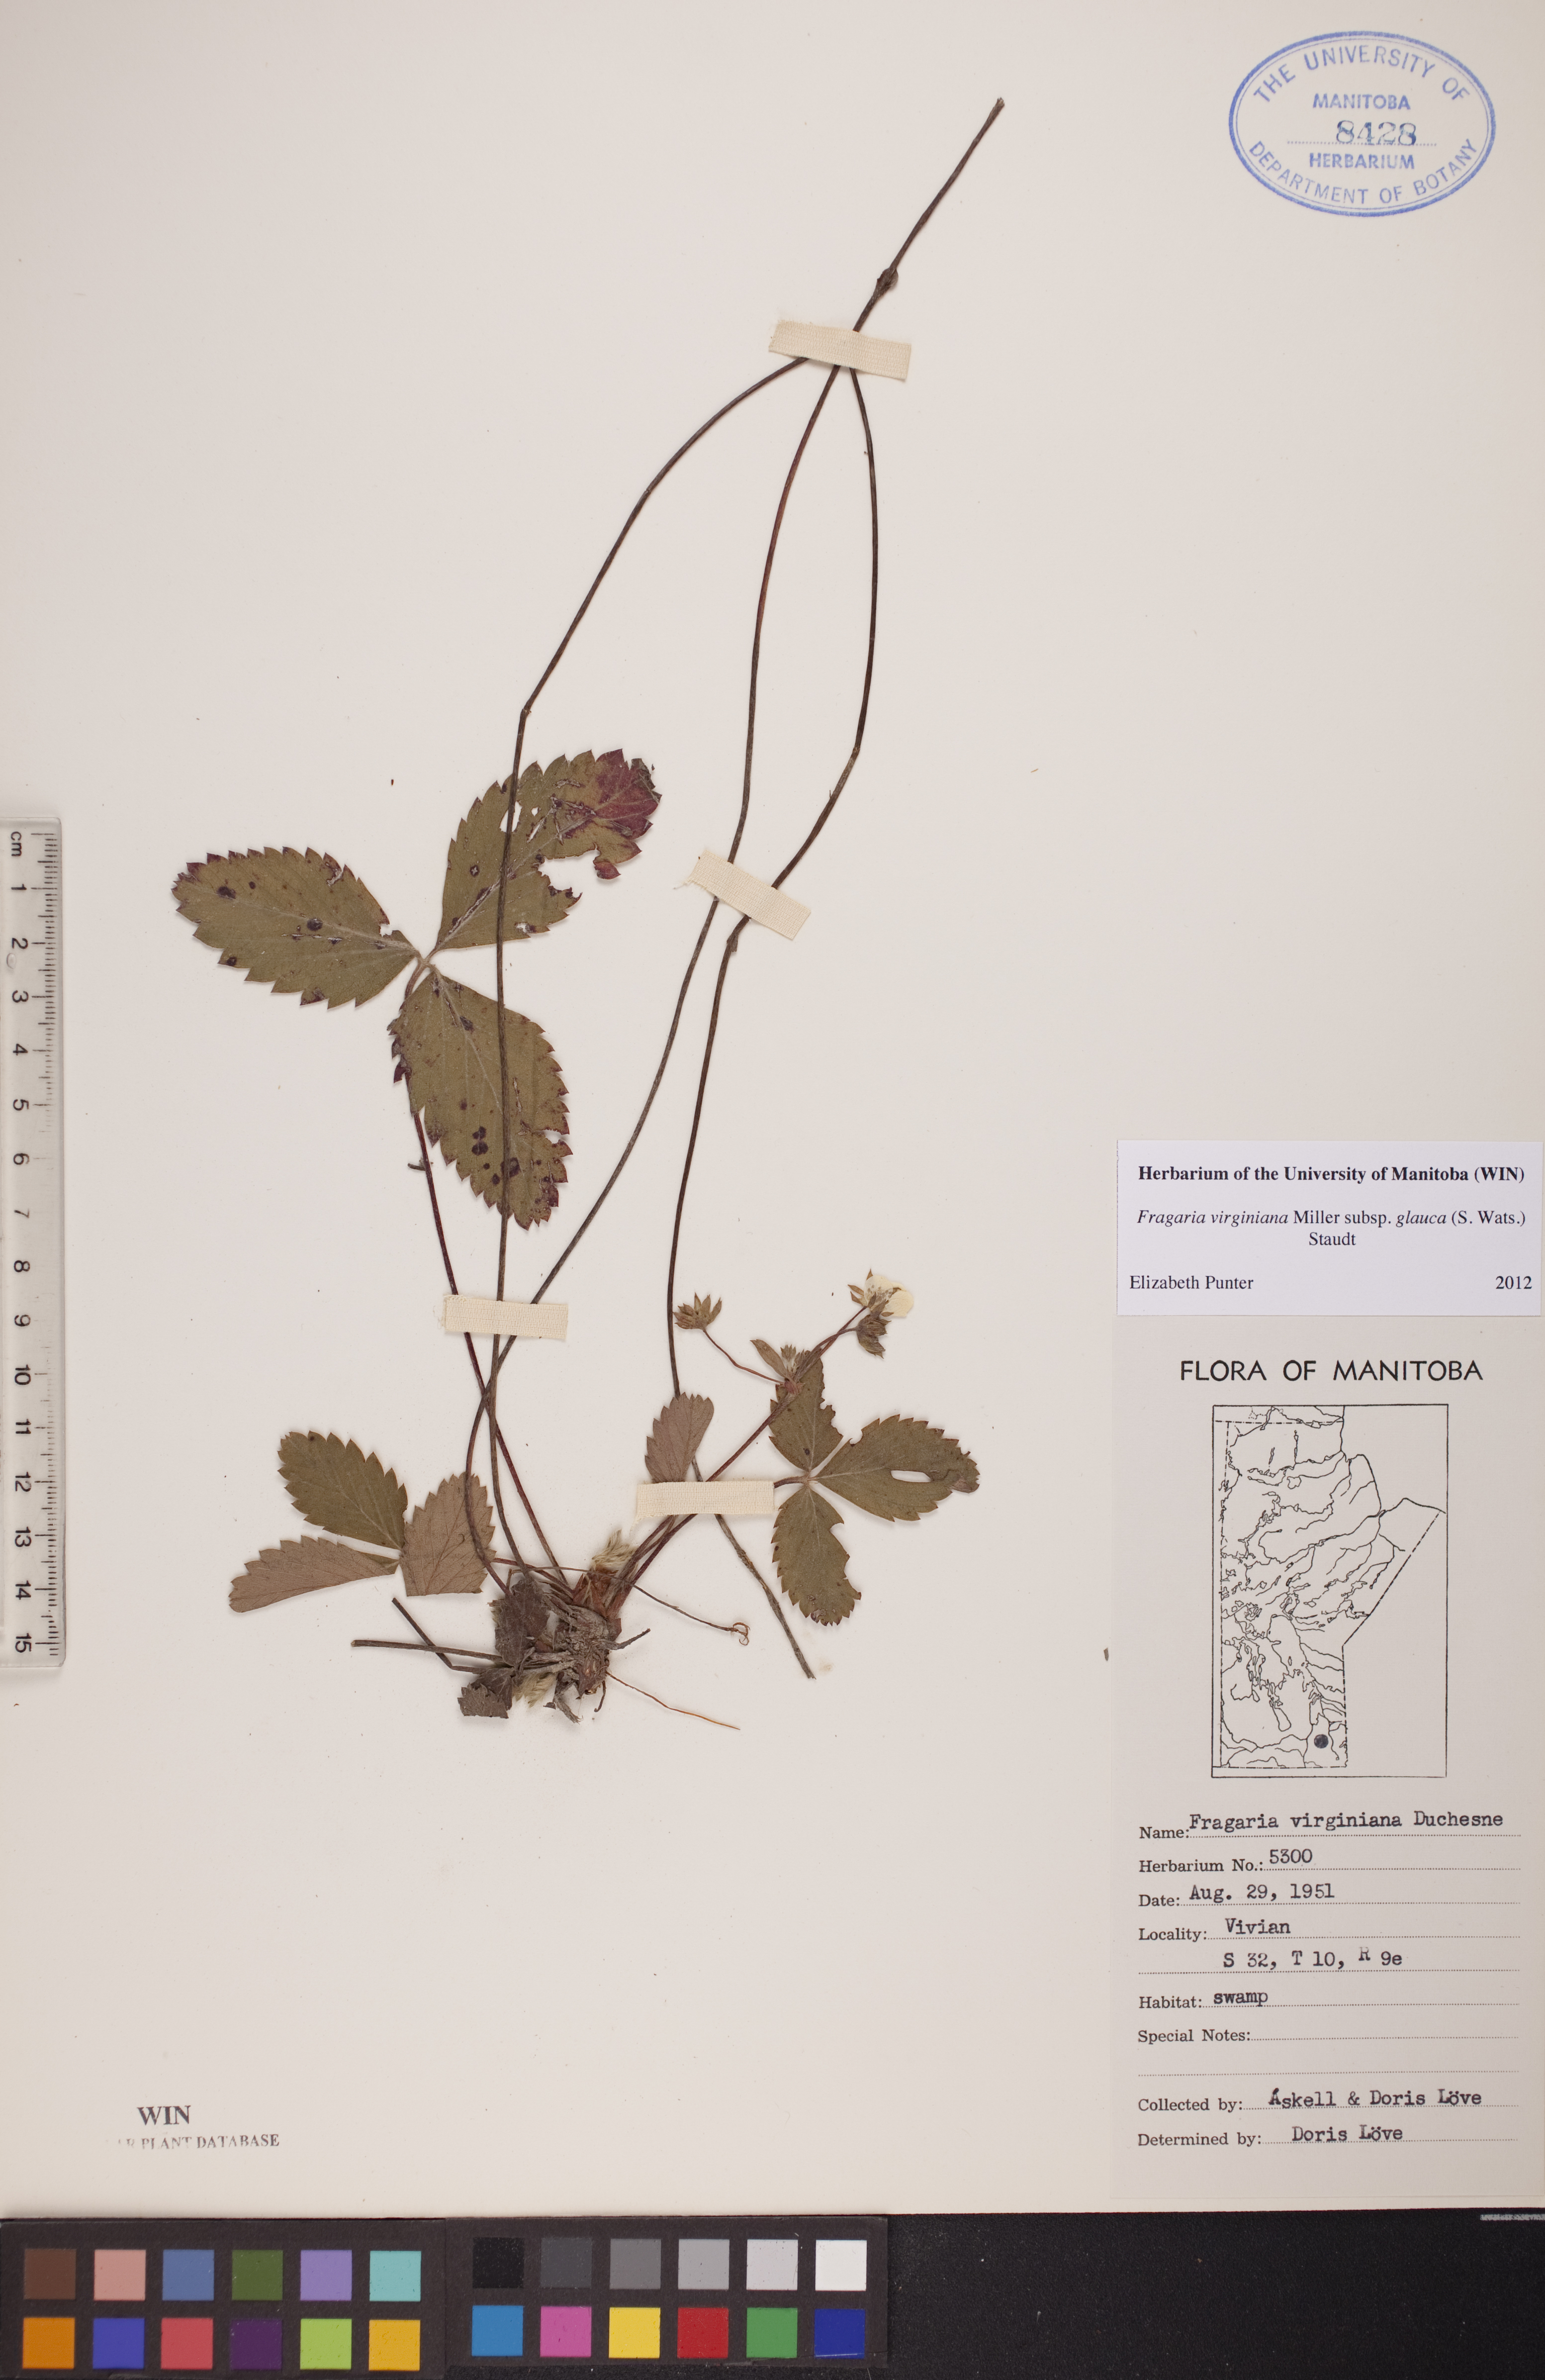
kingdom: Plantae
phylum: Tracheophyta
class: Magnoliopsida
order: Rosales
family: Rosaceae
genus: Fragaria
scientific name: Fragaria virginiana
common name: Thickleaved wild strawberry
